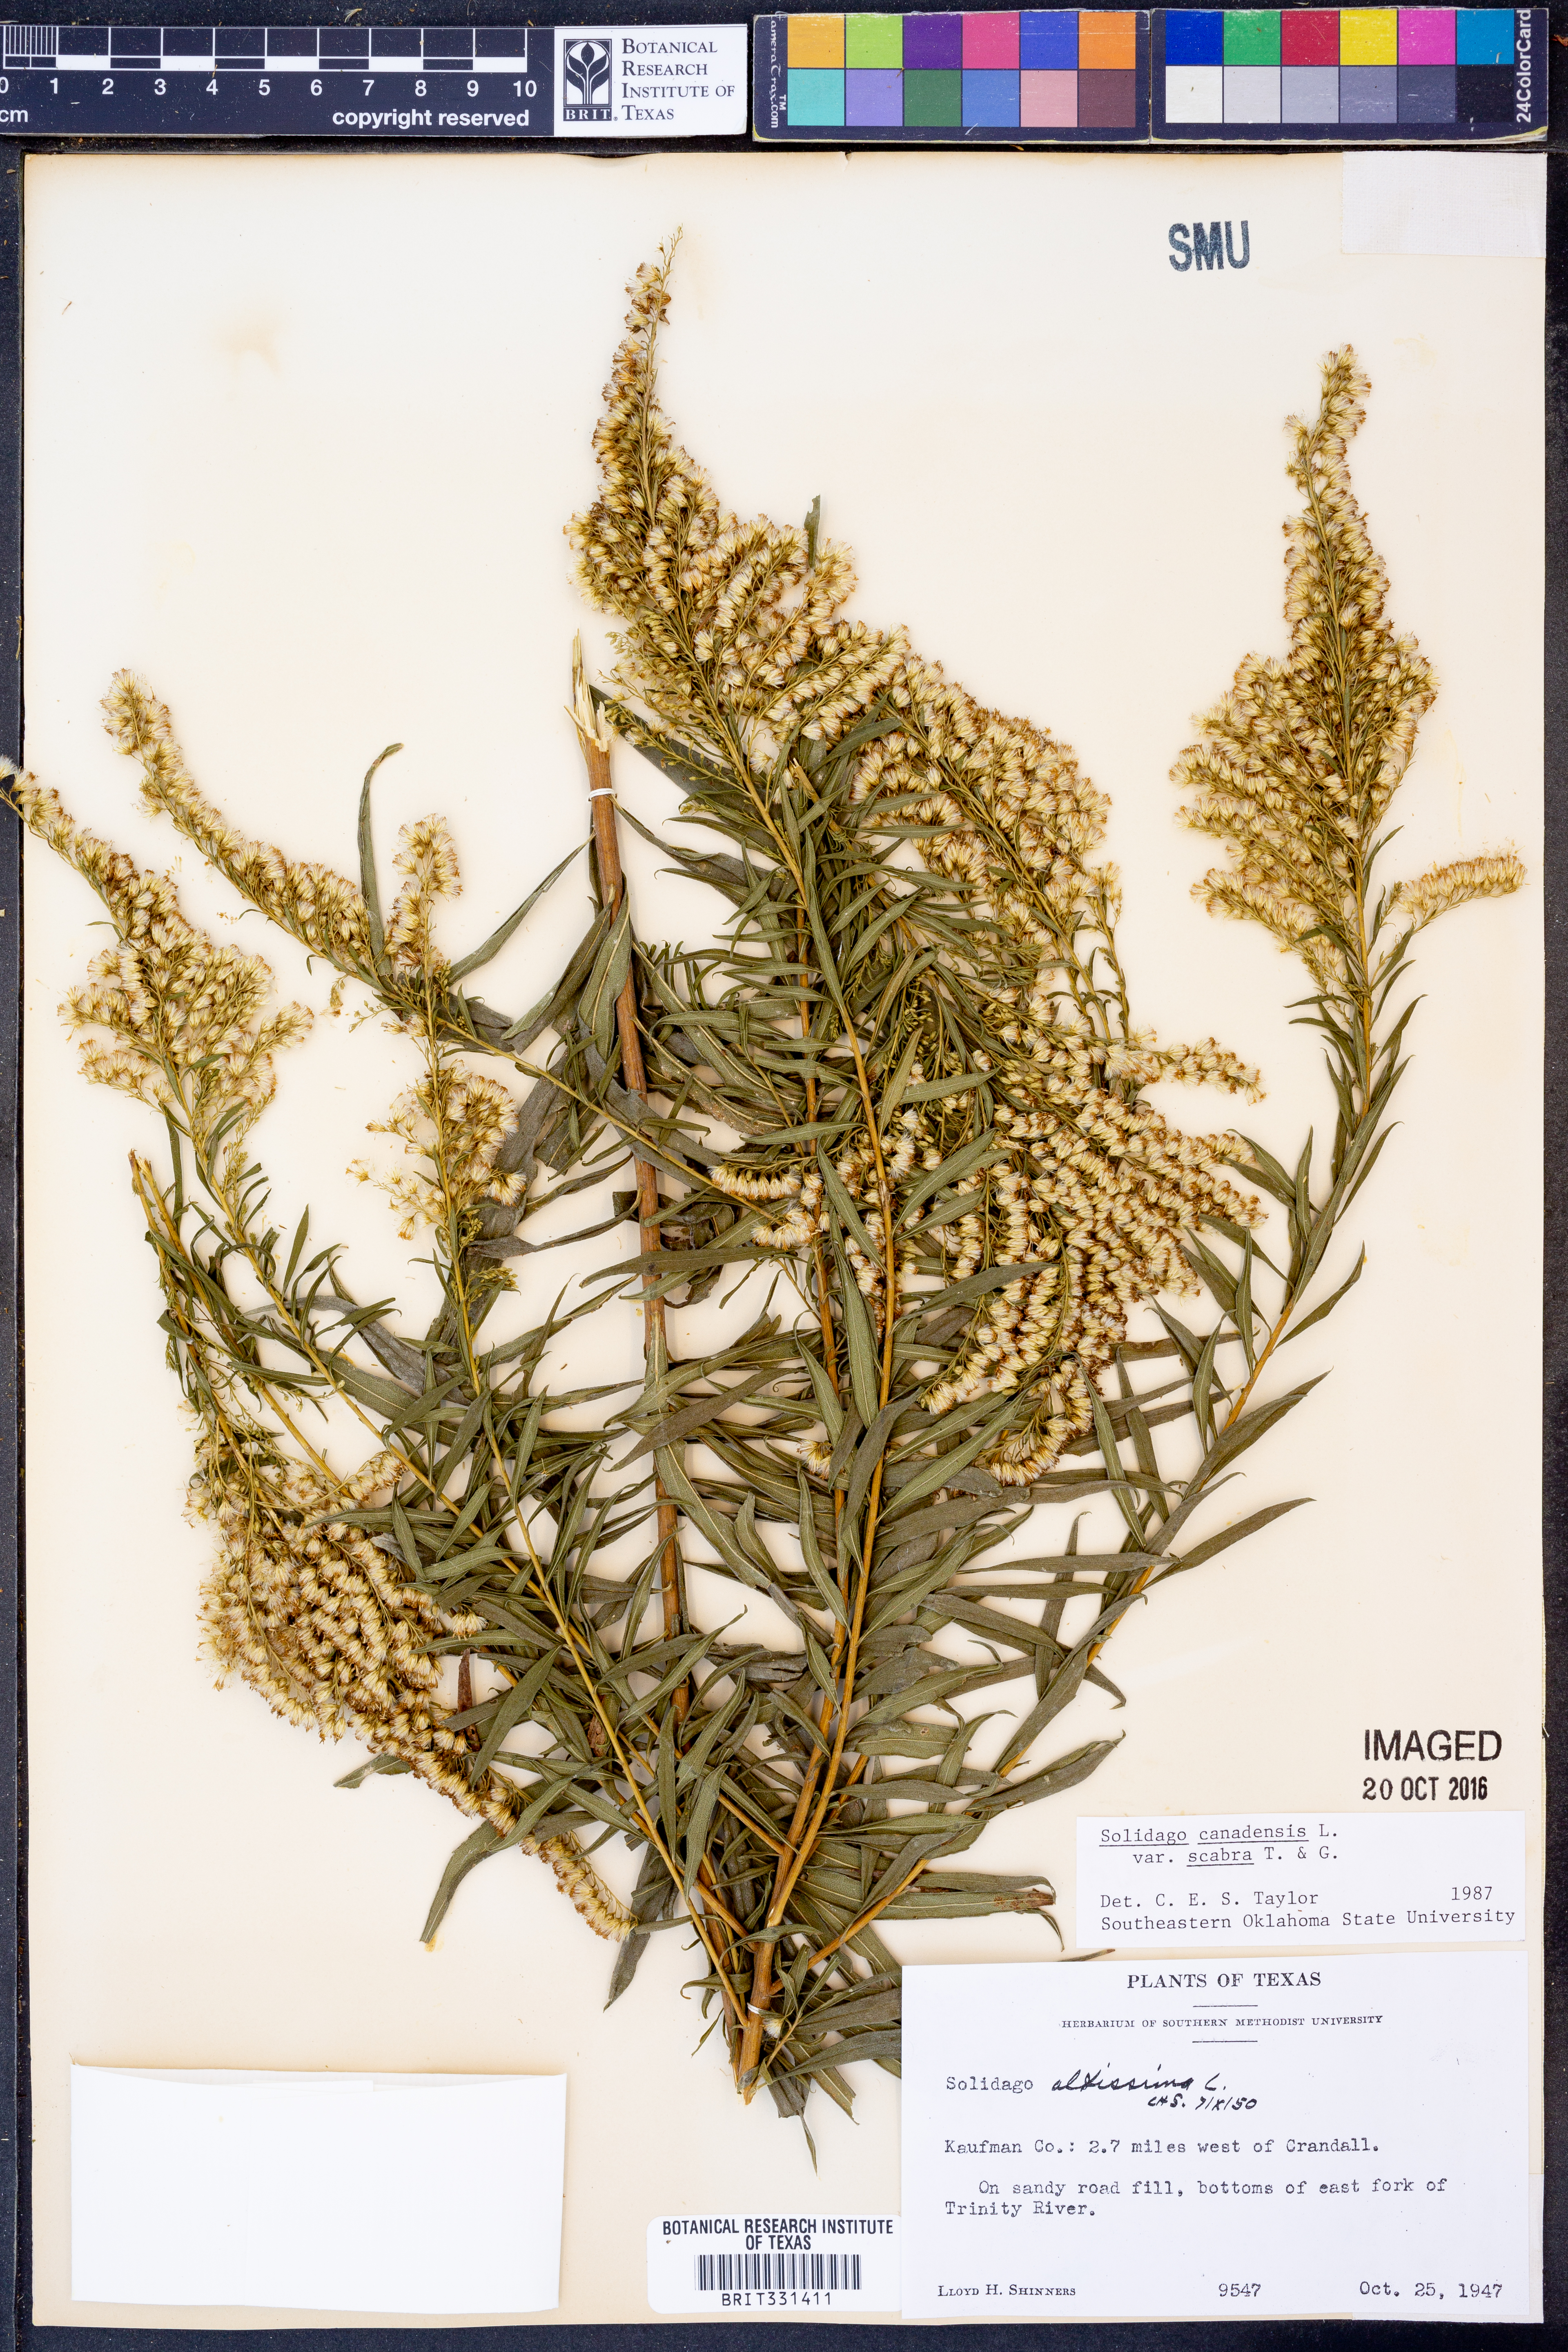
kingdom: Plantae
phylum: Tracheophyta
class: Magnoliopsida
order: Asterales
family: Asteraceae
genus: Solidago
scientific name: Solidago altissima
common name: Late goldenrod
